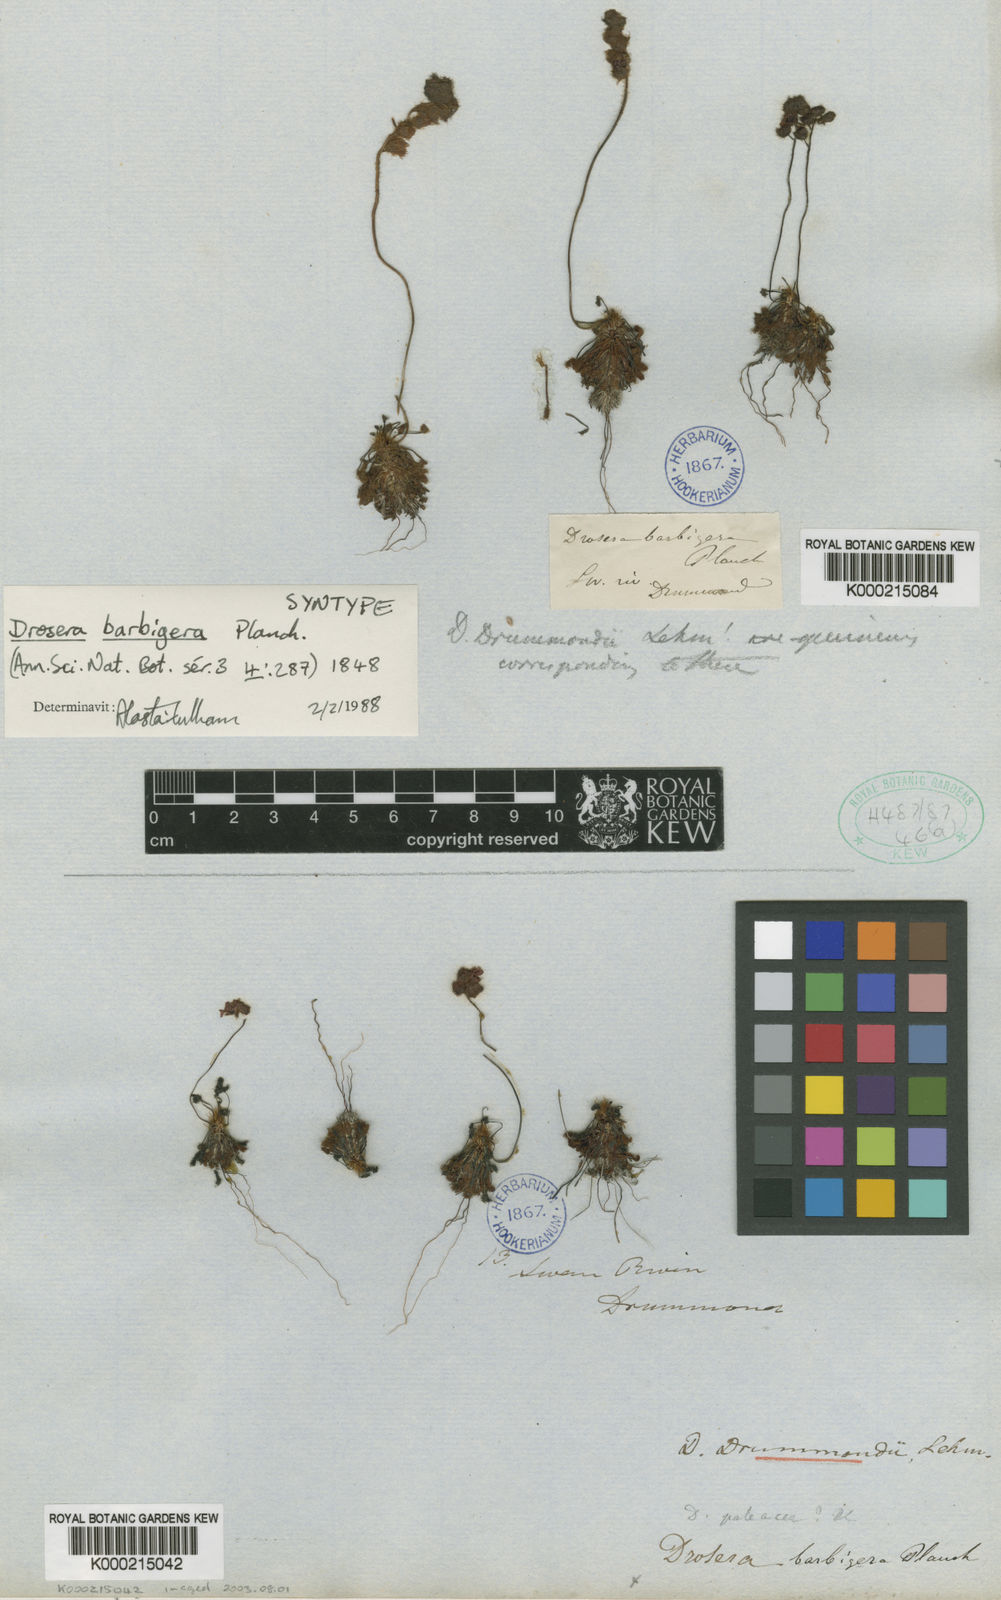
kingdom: Plantae
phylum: Tracheophyta
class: Magnoliopsida
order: Caryophyllales
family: Droseraceae
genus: Drosera
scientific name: Drosera barbigera
